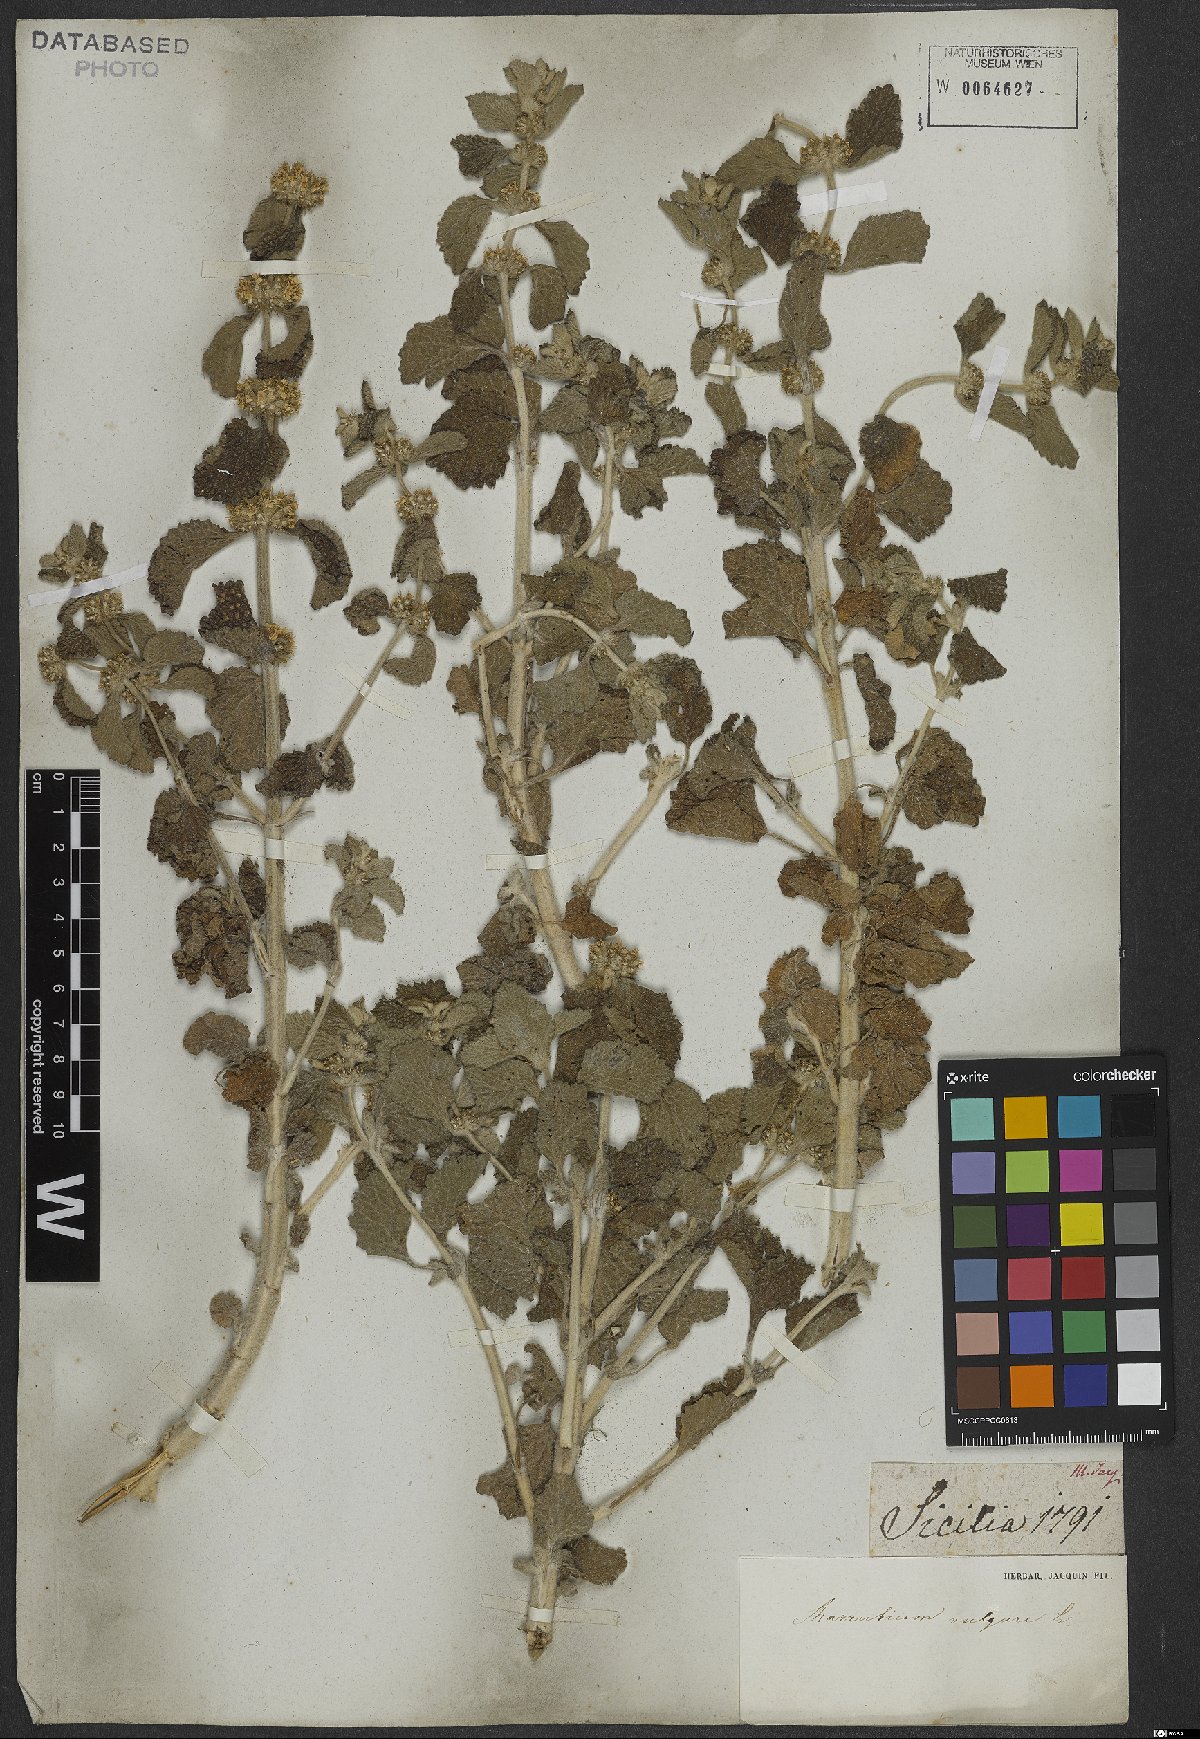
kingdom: Plantae
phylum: Tracheophyta
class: Magnoliopsida
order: Lamiales
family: Lamiaceae
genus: Marrubium
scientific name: Marrubium vulgare
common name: Horehound
